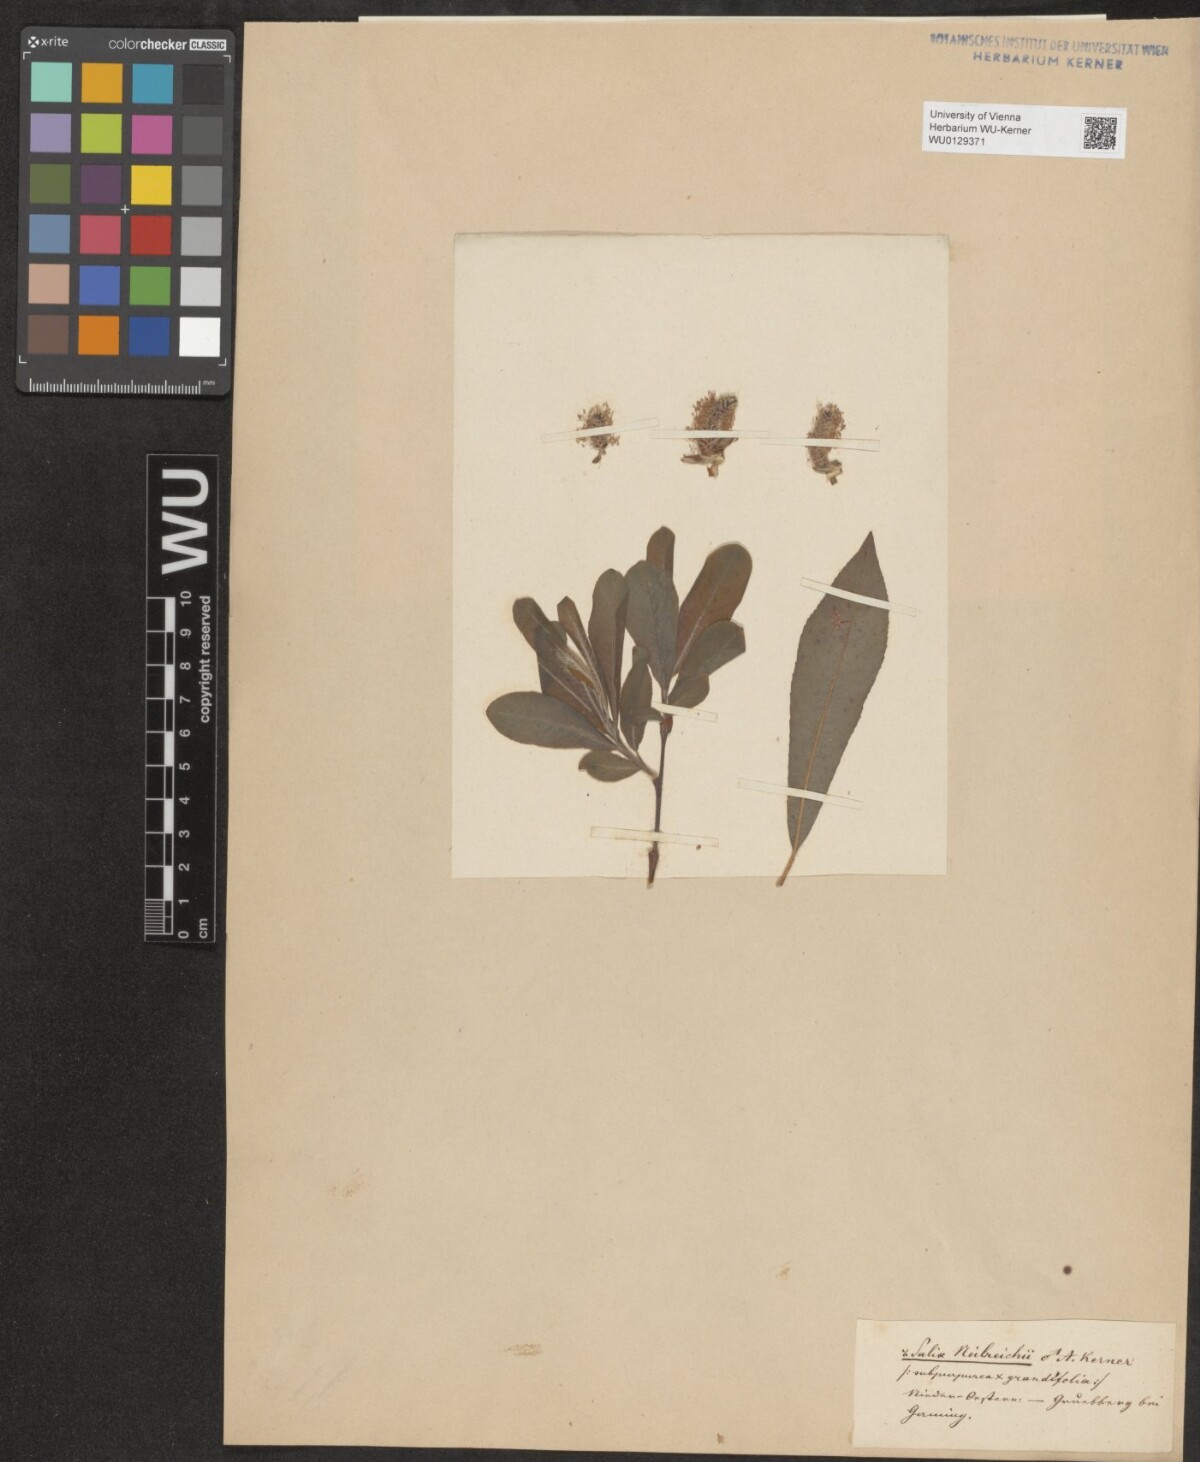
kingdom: Plantae
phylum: Tracheophyta
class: Magnoliopsida
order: Malpighiales
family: Salicaceae
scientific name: Salicaceae
